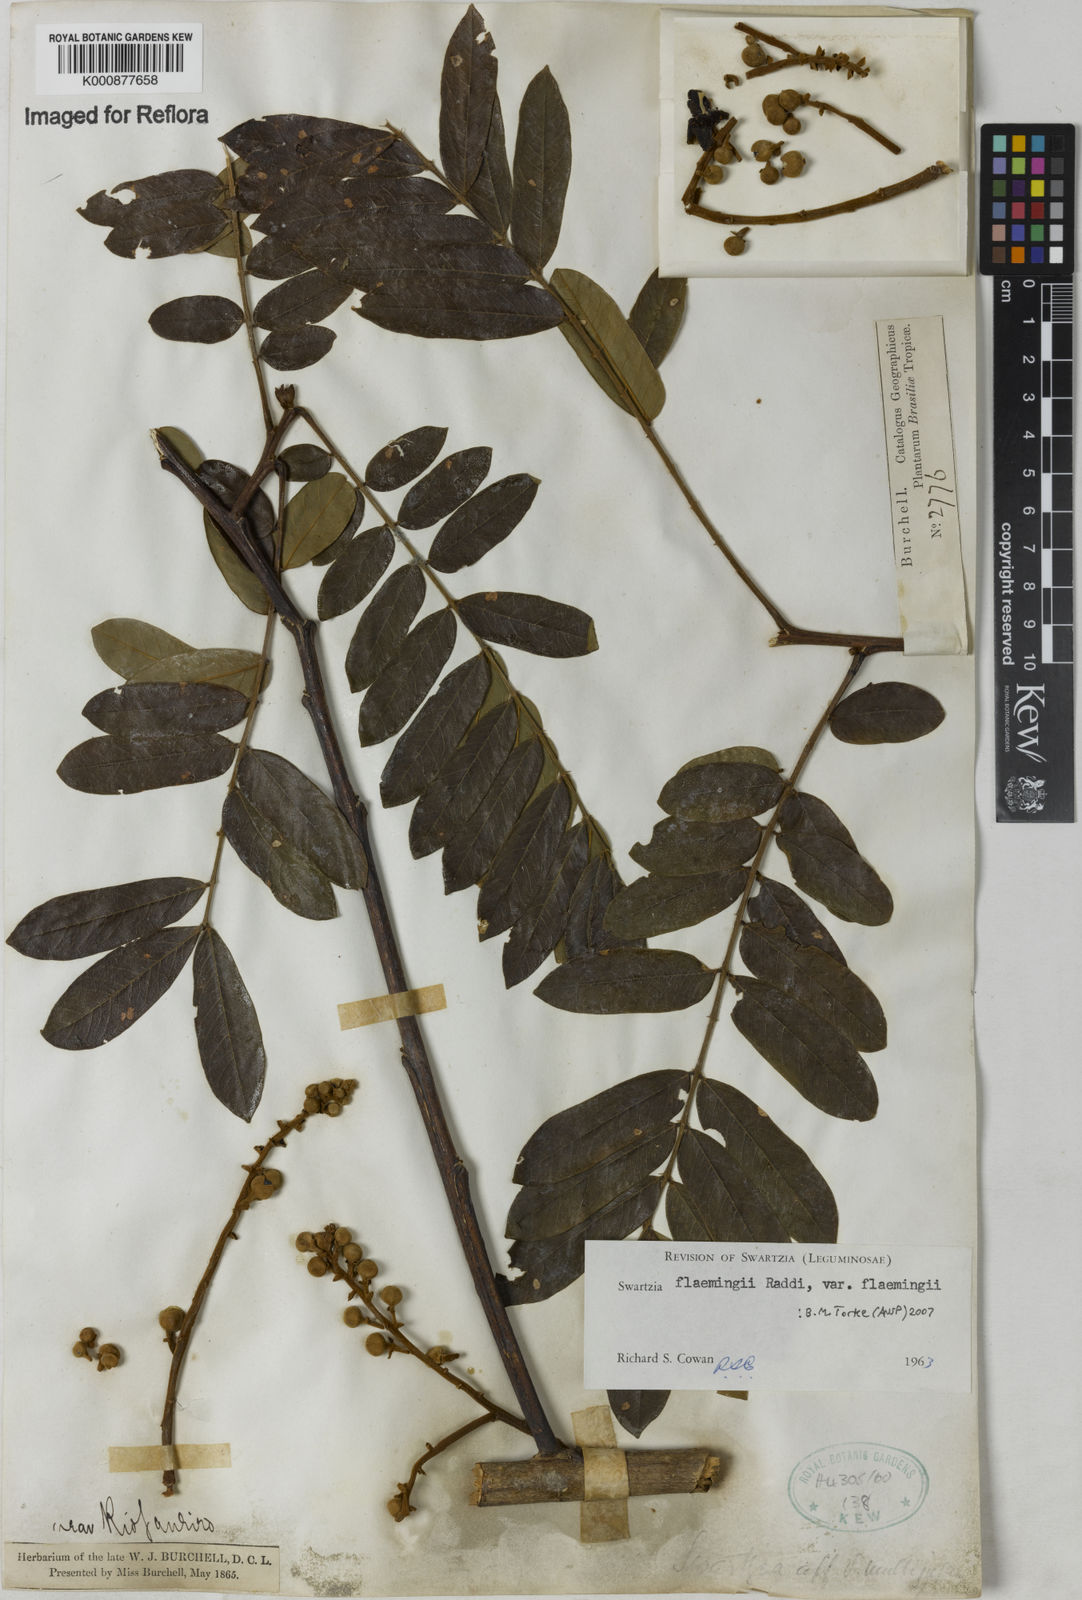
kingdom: Plantae
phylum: Tracheophyta
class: Magnoliopsida
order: Fabales
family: Fabaceae
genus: Swartzia
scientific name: Swartzia flaemingii
